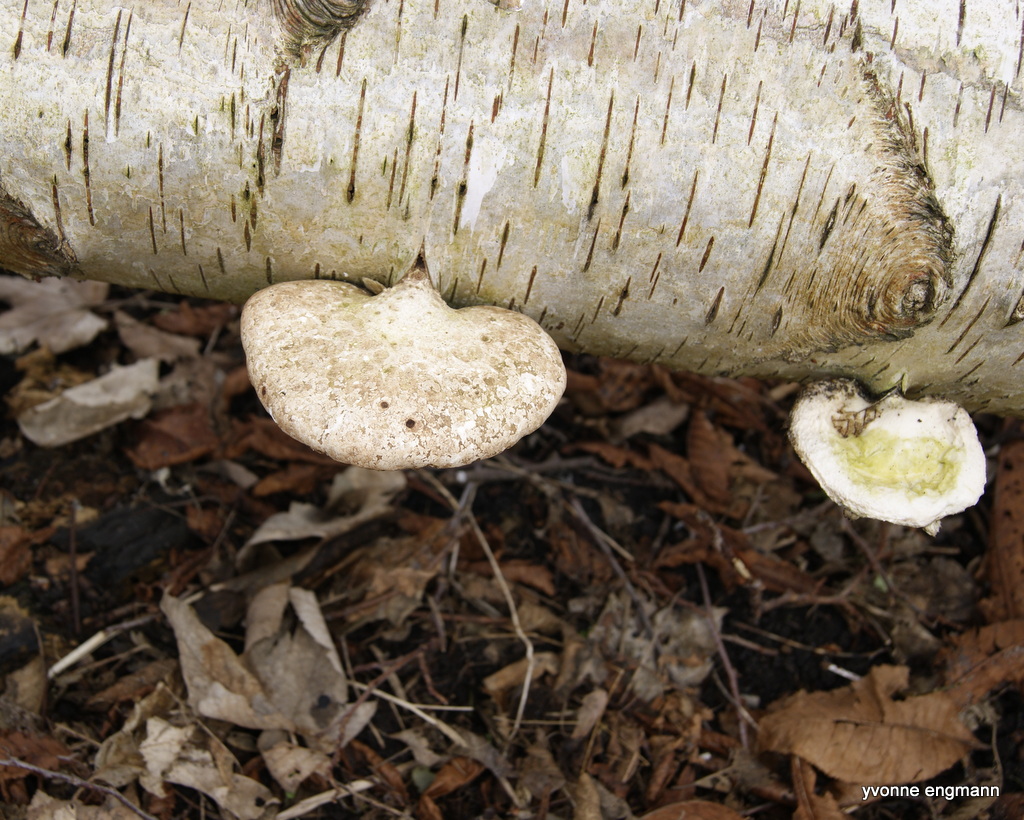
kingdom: Fungi
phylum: Basidiomycota
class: Agaricomycetes
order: Polyporales
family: Fomitopsidaceae
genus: Fomitopsis
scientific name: Fomitopsis betulina
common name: birkeporesvamp
